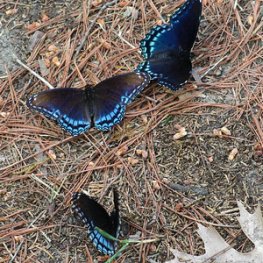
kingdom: Animalia
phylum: Arthropoda
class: Insecta
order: Lepidoptera
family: Nymphalidae
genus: Limenitis
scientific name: Limenitis astyanax
